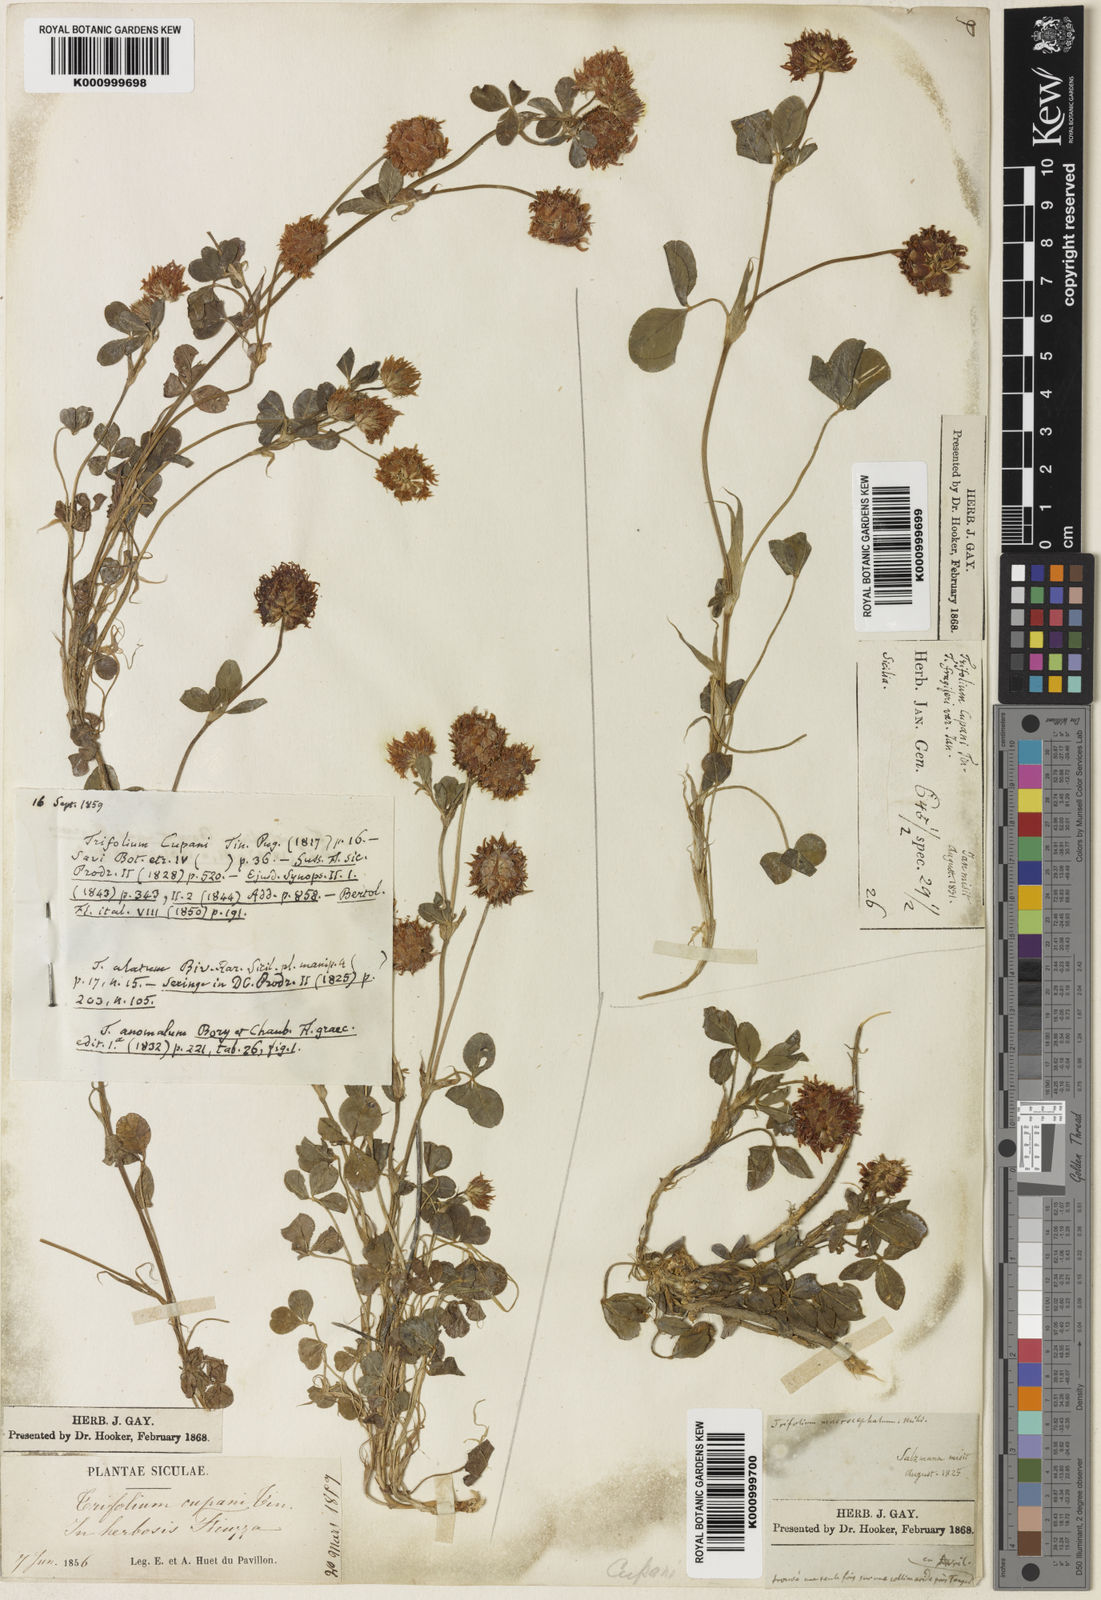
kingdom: Plantae
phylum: Tracheophyta
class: Magnoliopsida
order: Fabales
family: Fabaceae
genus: Trifolium
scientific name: Trifolium physodes
